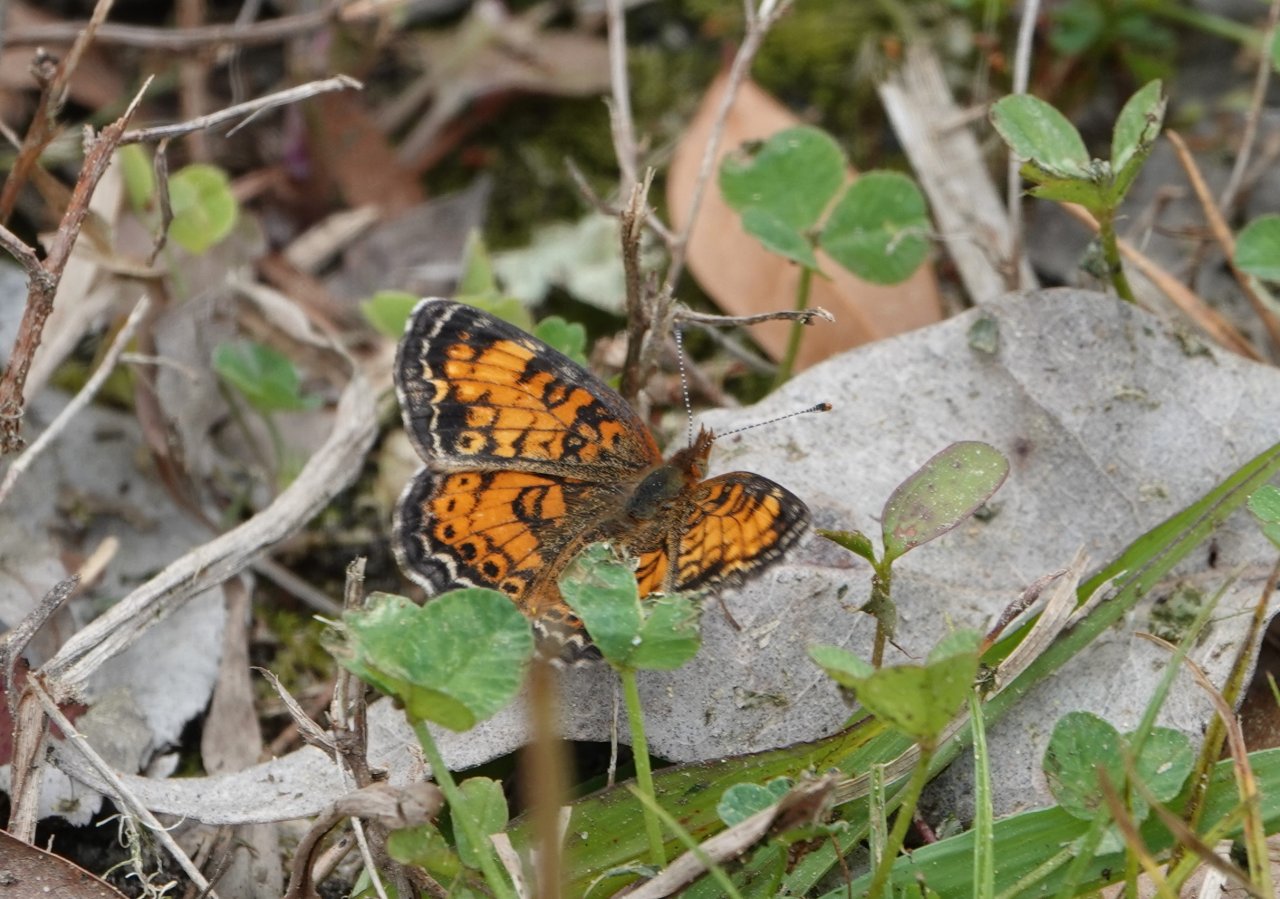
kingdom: Animalia
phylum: Arthropoda
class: Insecta
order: Lepidoptera
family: Nymphalidae
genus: Phyciodes
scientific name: Phyciodes tharos
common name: Pearl Crescent
